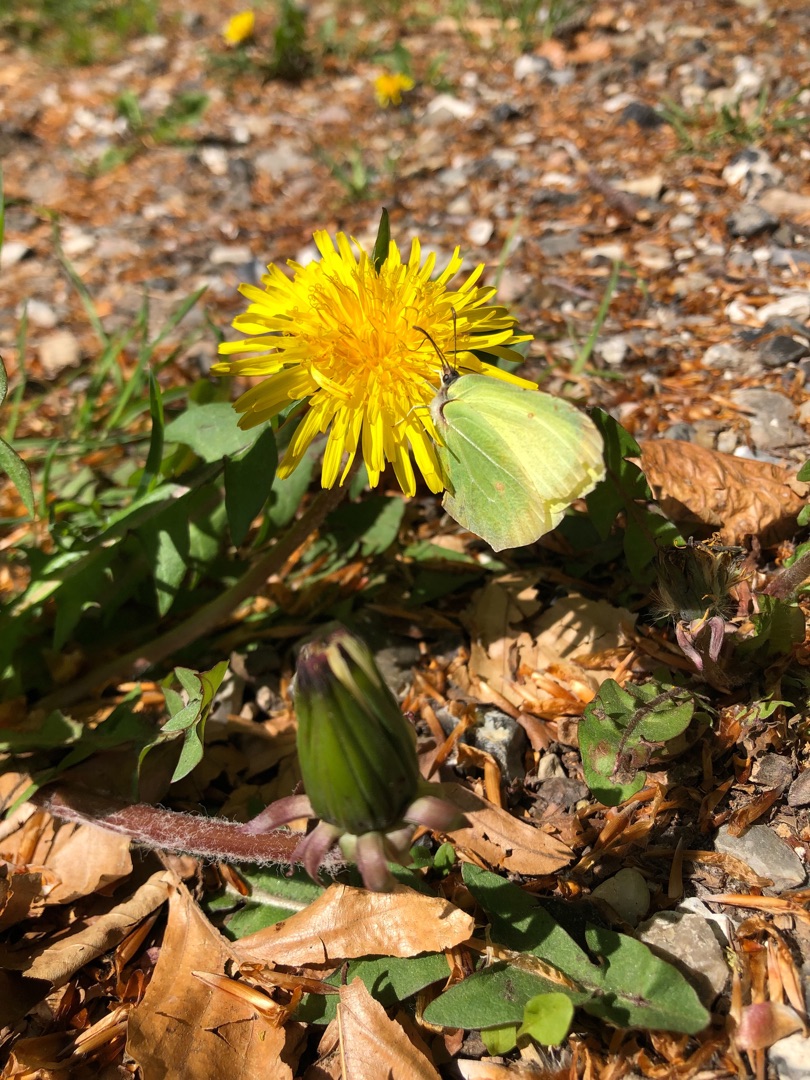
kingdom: Animalia
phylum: Arthropoda
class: Insecta
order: Lepidoptera
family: Pieridae
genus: Gonepteryx
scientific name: Gonepteryx rhamni
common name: Citronsommerfugl
